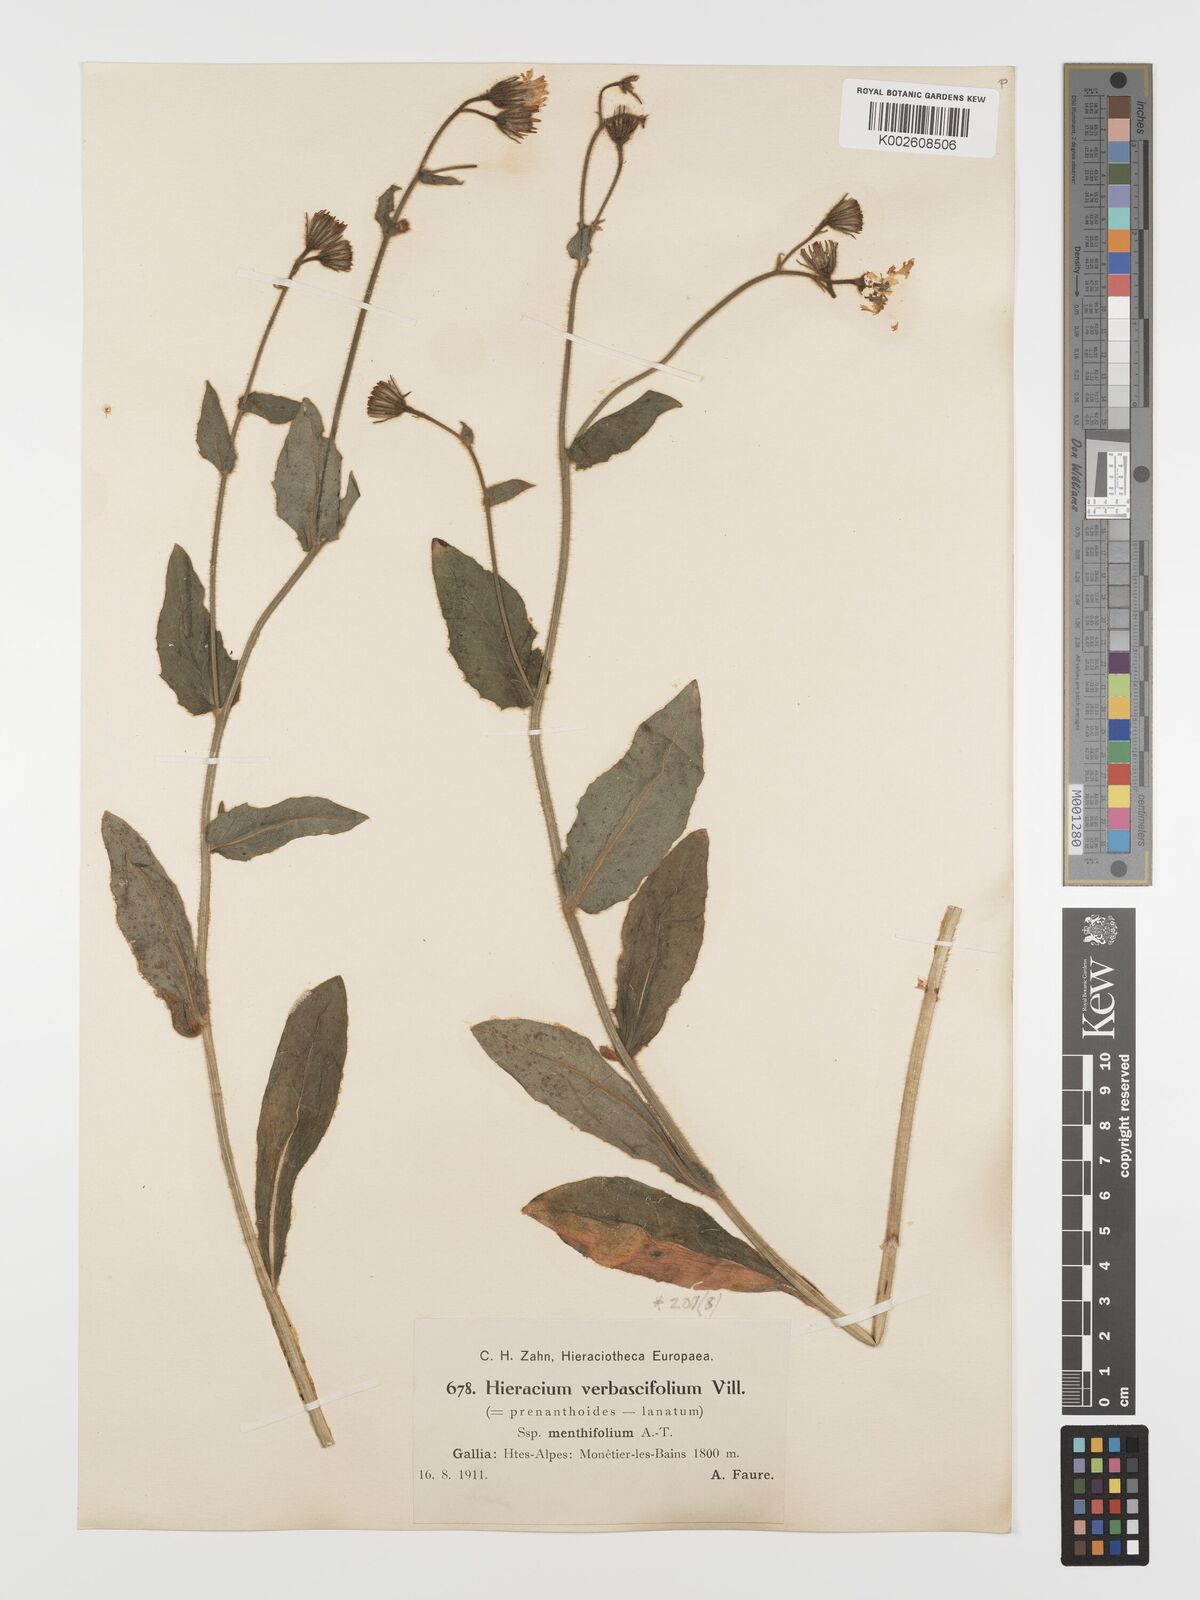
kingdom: Plantae
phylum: Tracheophyta
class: Magnoliopsida
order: Asterales
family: Asteraceae
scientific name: Asteraceae
